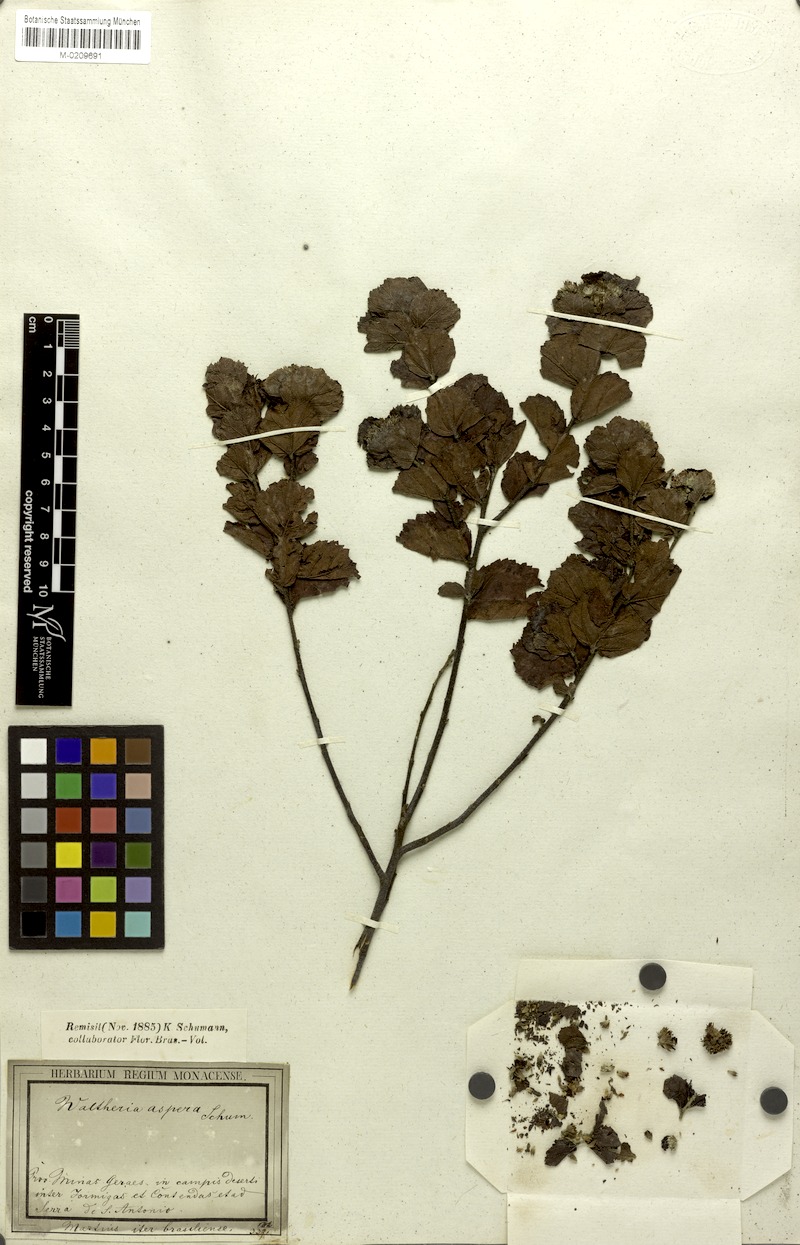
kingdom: Plantae
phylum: Tracheophyta
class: Magnoliopsida
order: Malvales
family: Malvaceae
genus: Waltheria
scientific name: Waltheria scabra
